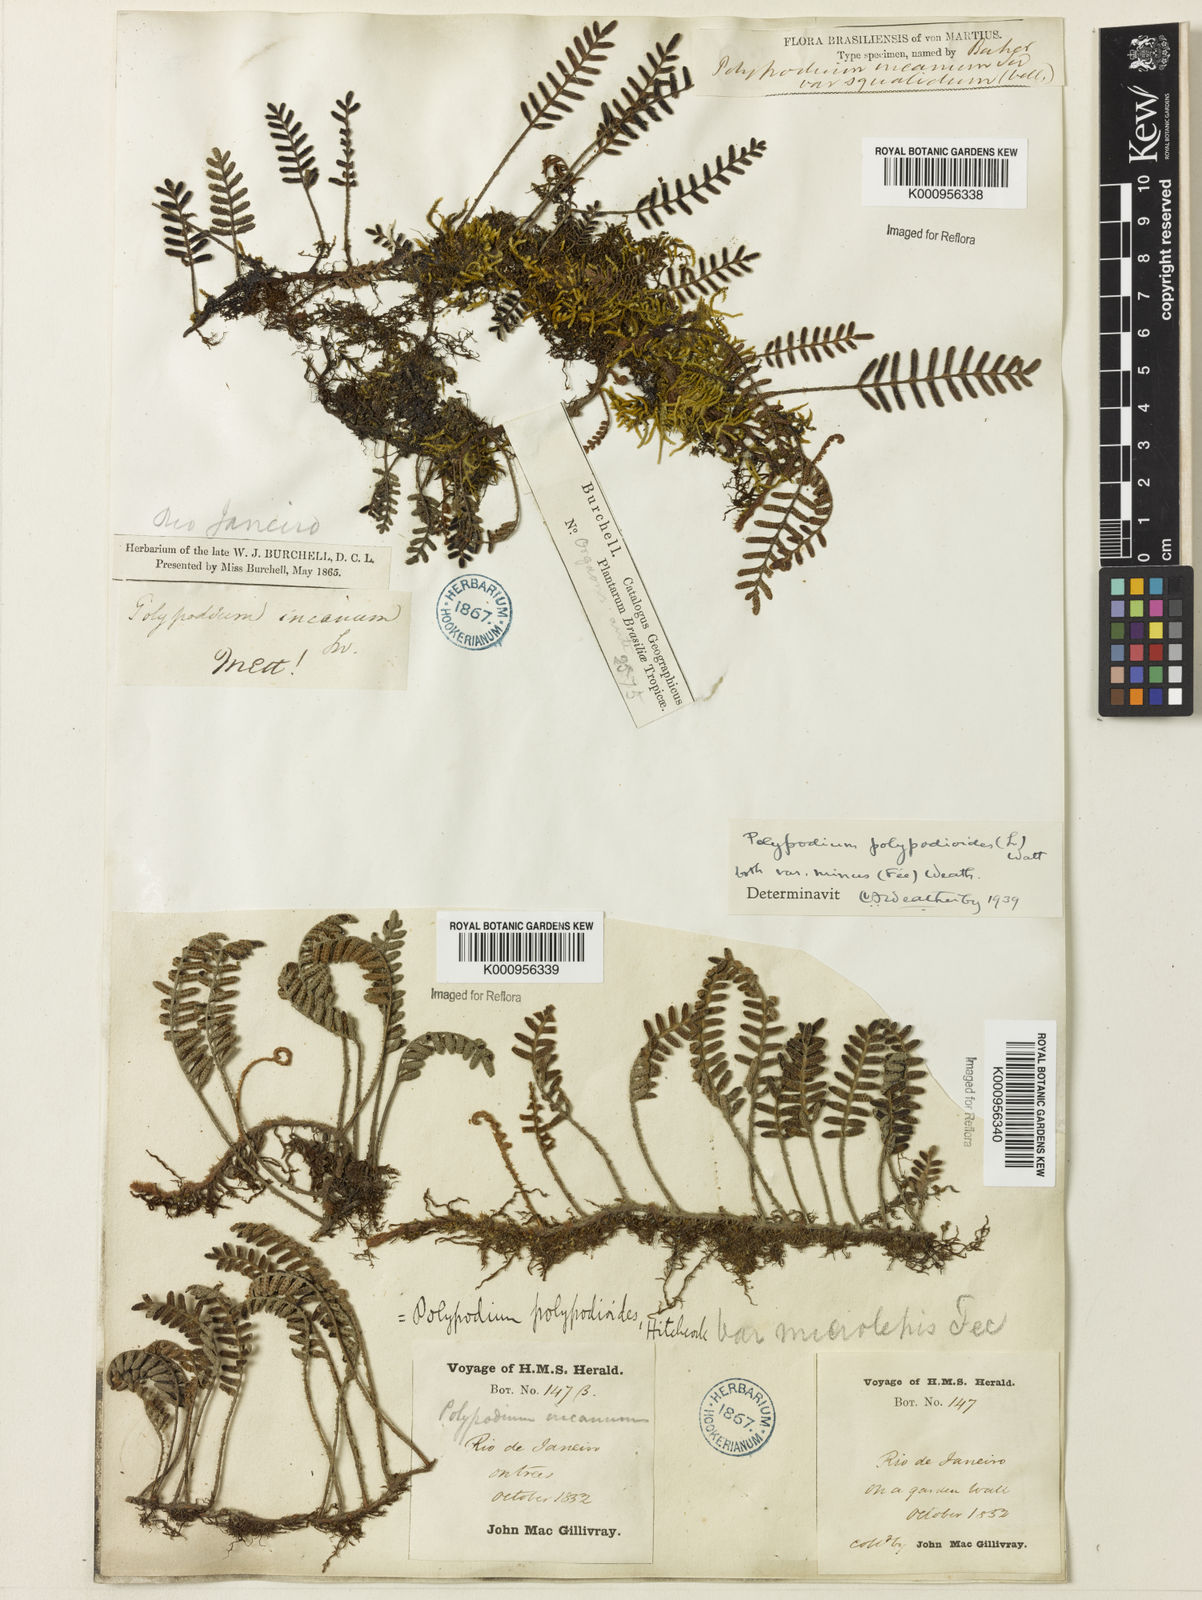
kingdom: Plantae
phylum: Tracheophyta
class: Polypodiopsida
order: Polypodiales
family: Polypodiaceae
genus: Pleopeltis
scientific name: Pleopeltis polypodioides
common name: Resurrection fern
